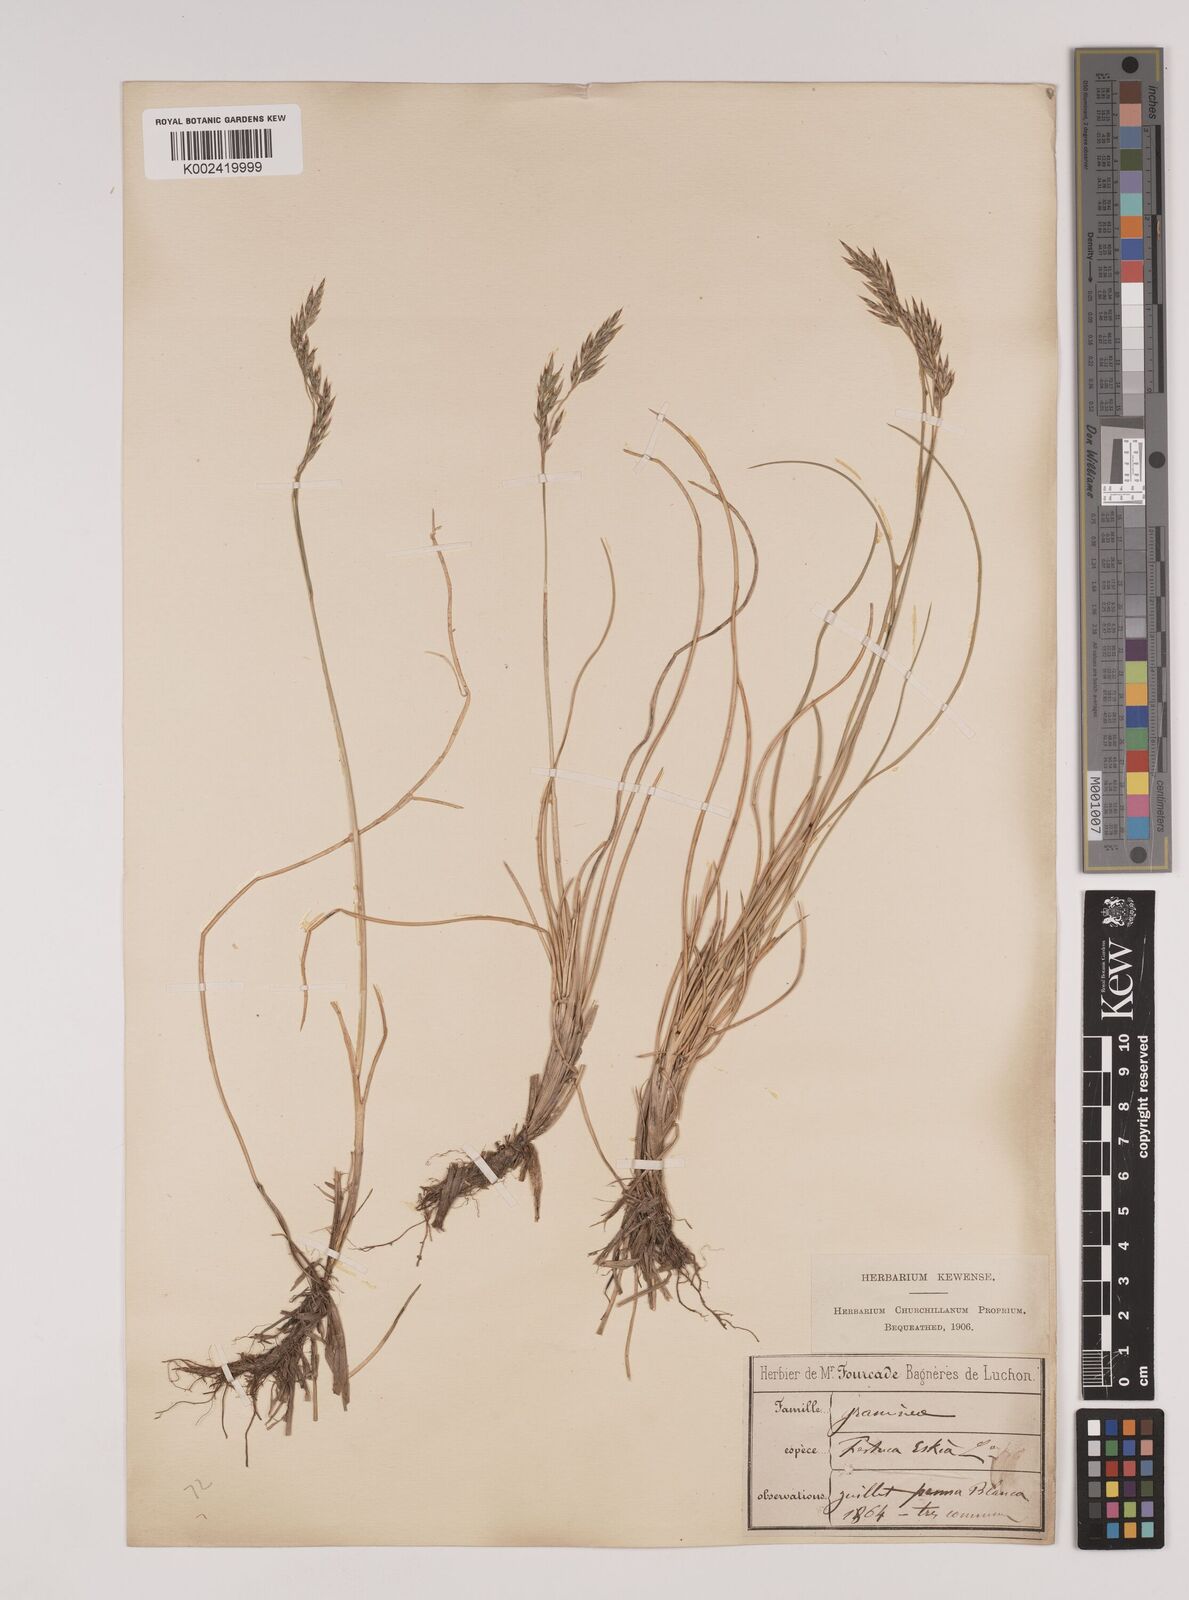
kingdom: Plantae
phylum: Tracheophyta
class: Liliopsida
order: Poales
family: Poaceae
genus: Festuca
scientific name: Festuca eskia
